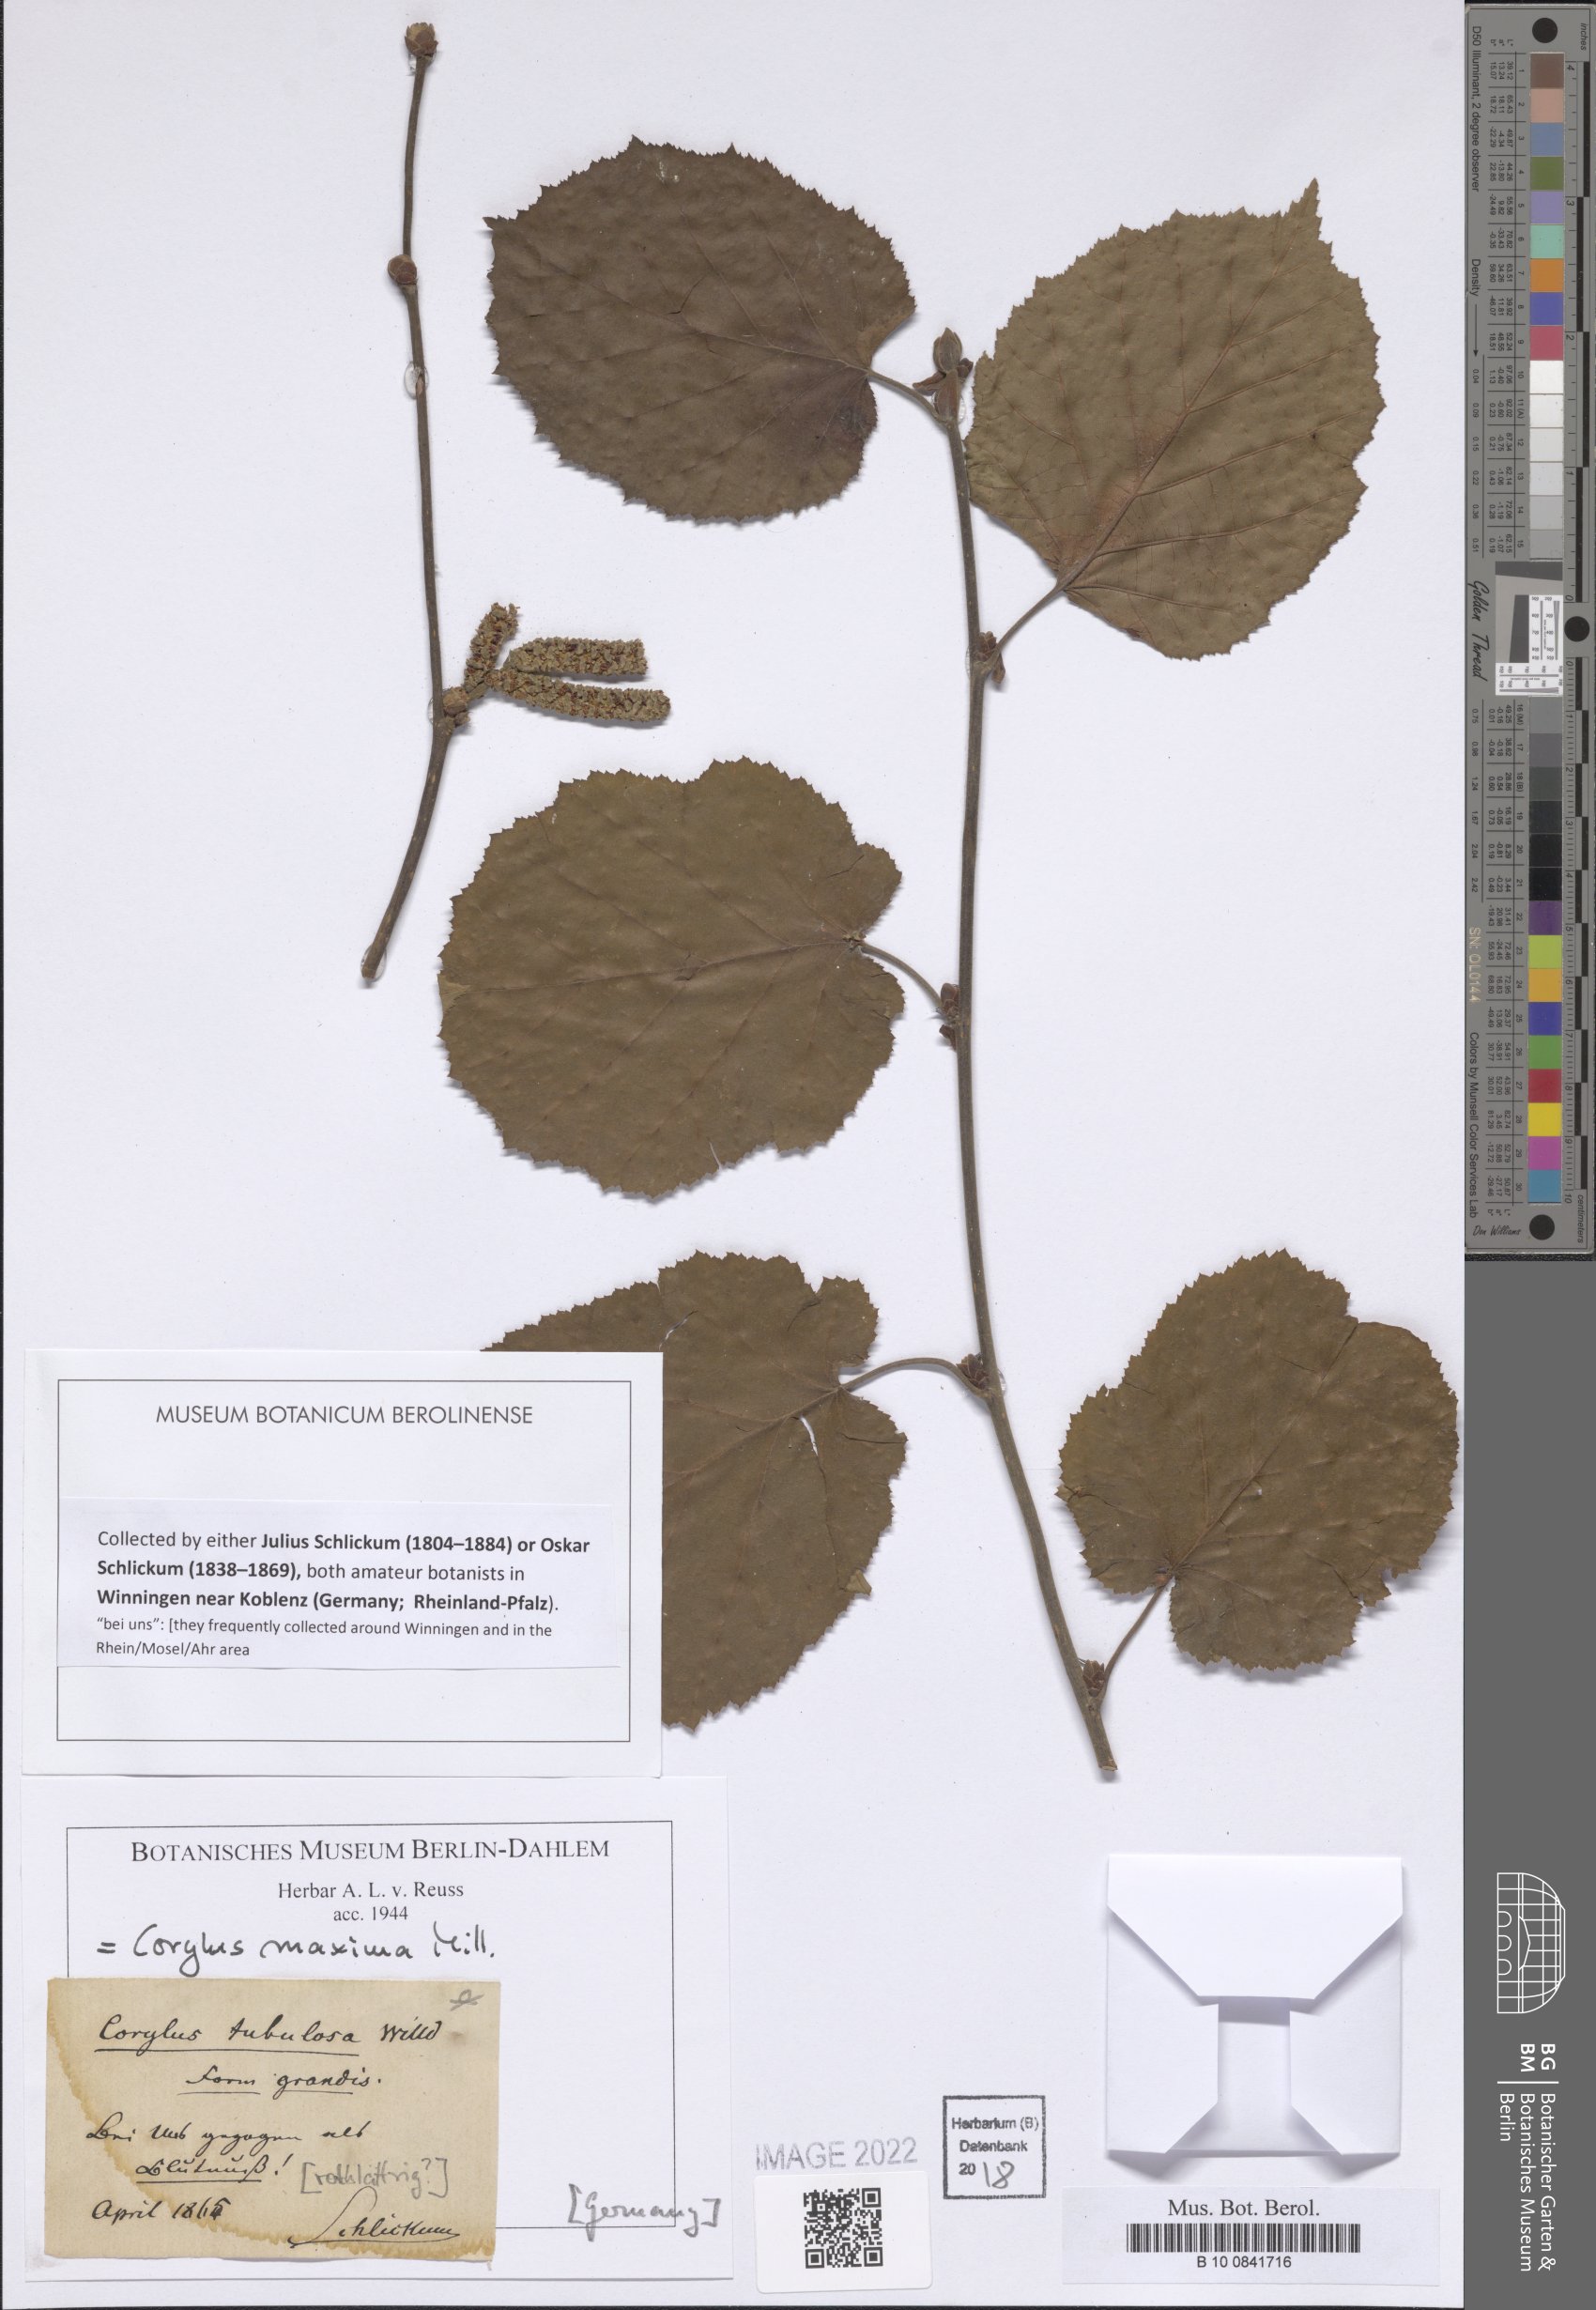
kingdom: Plantae
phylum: Tracheophyta
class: Magnoliopsida
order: Fagales
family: Betulaceae
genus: Corylus
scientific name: Corylus maxima
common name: Filbert
